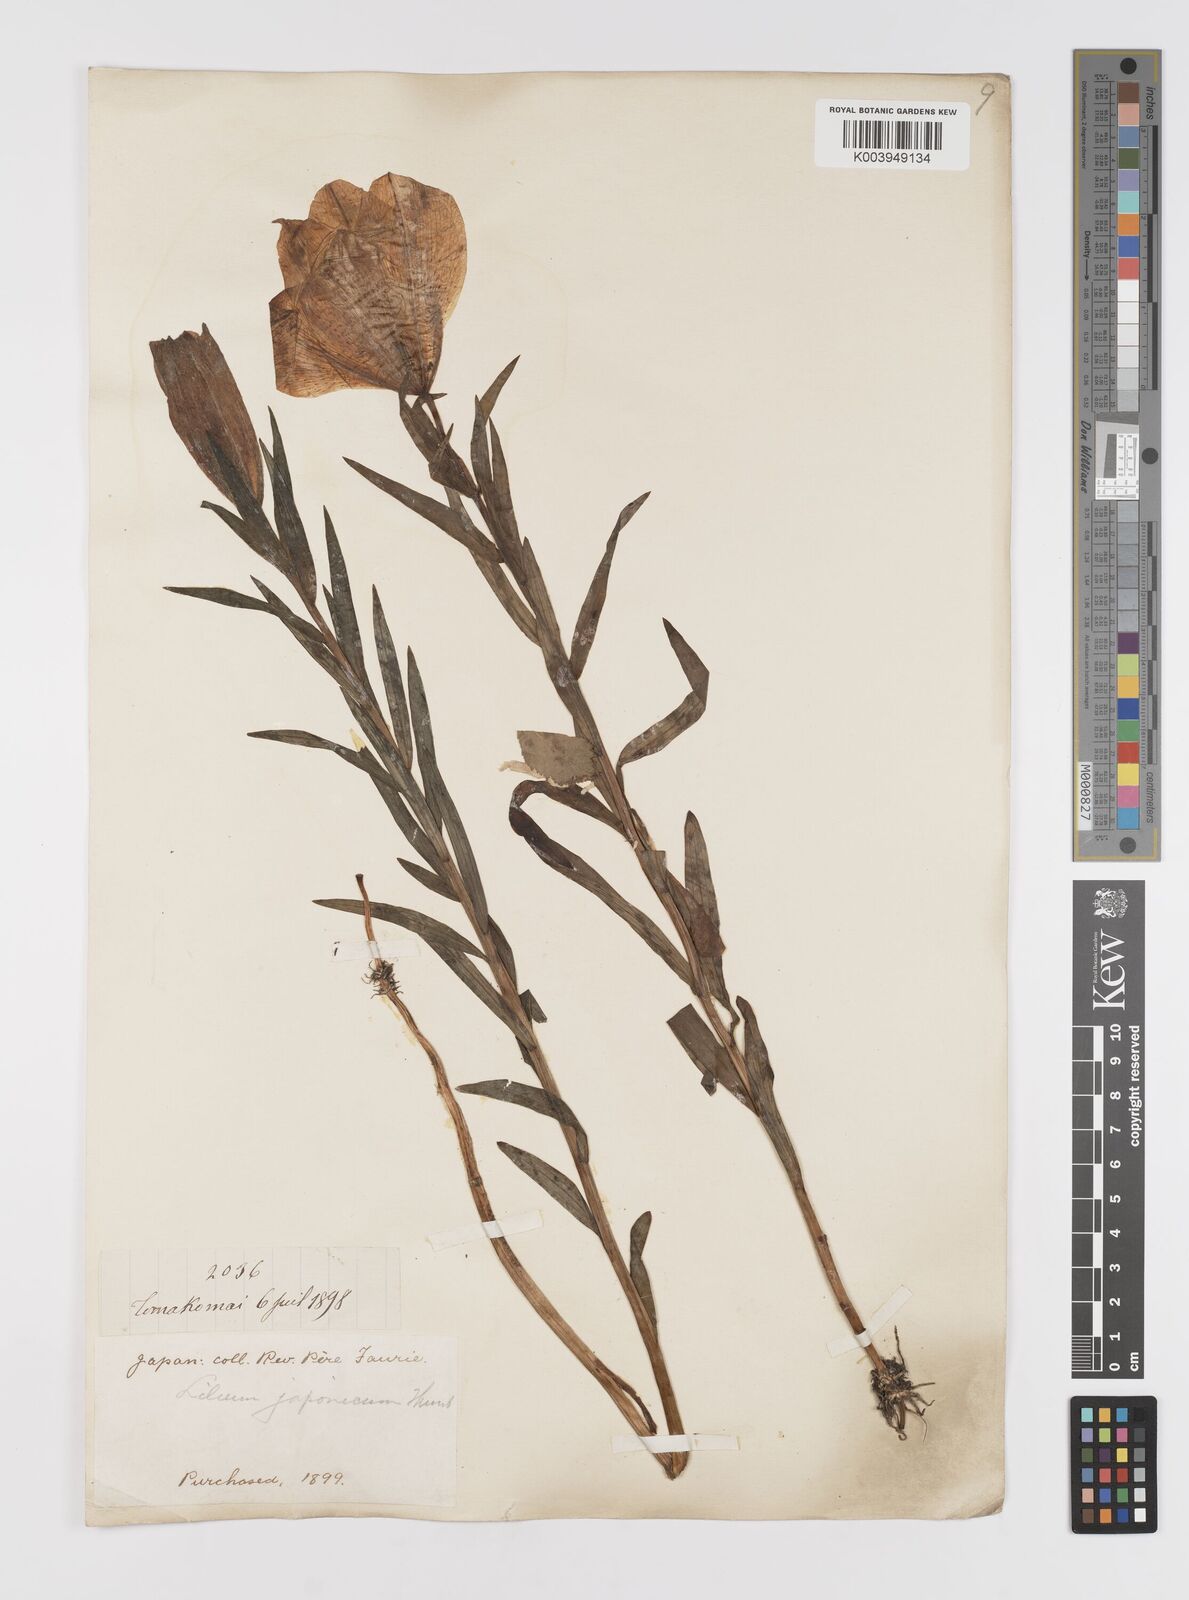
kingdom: Plantae
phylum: Tracheophyta
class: Liliopsida
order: Liliales
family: Liliaceae
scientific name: Liliaceae
